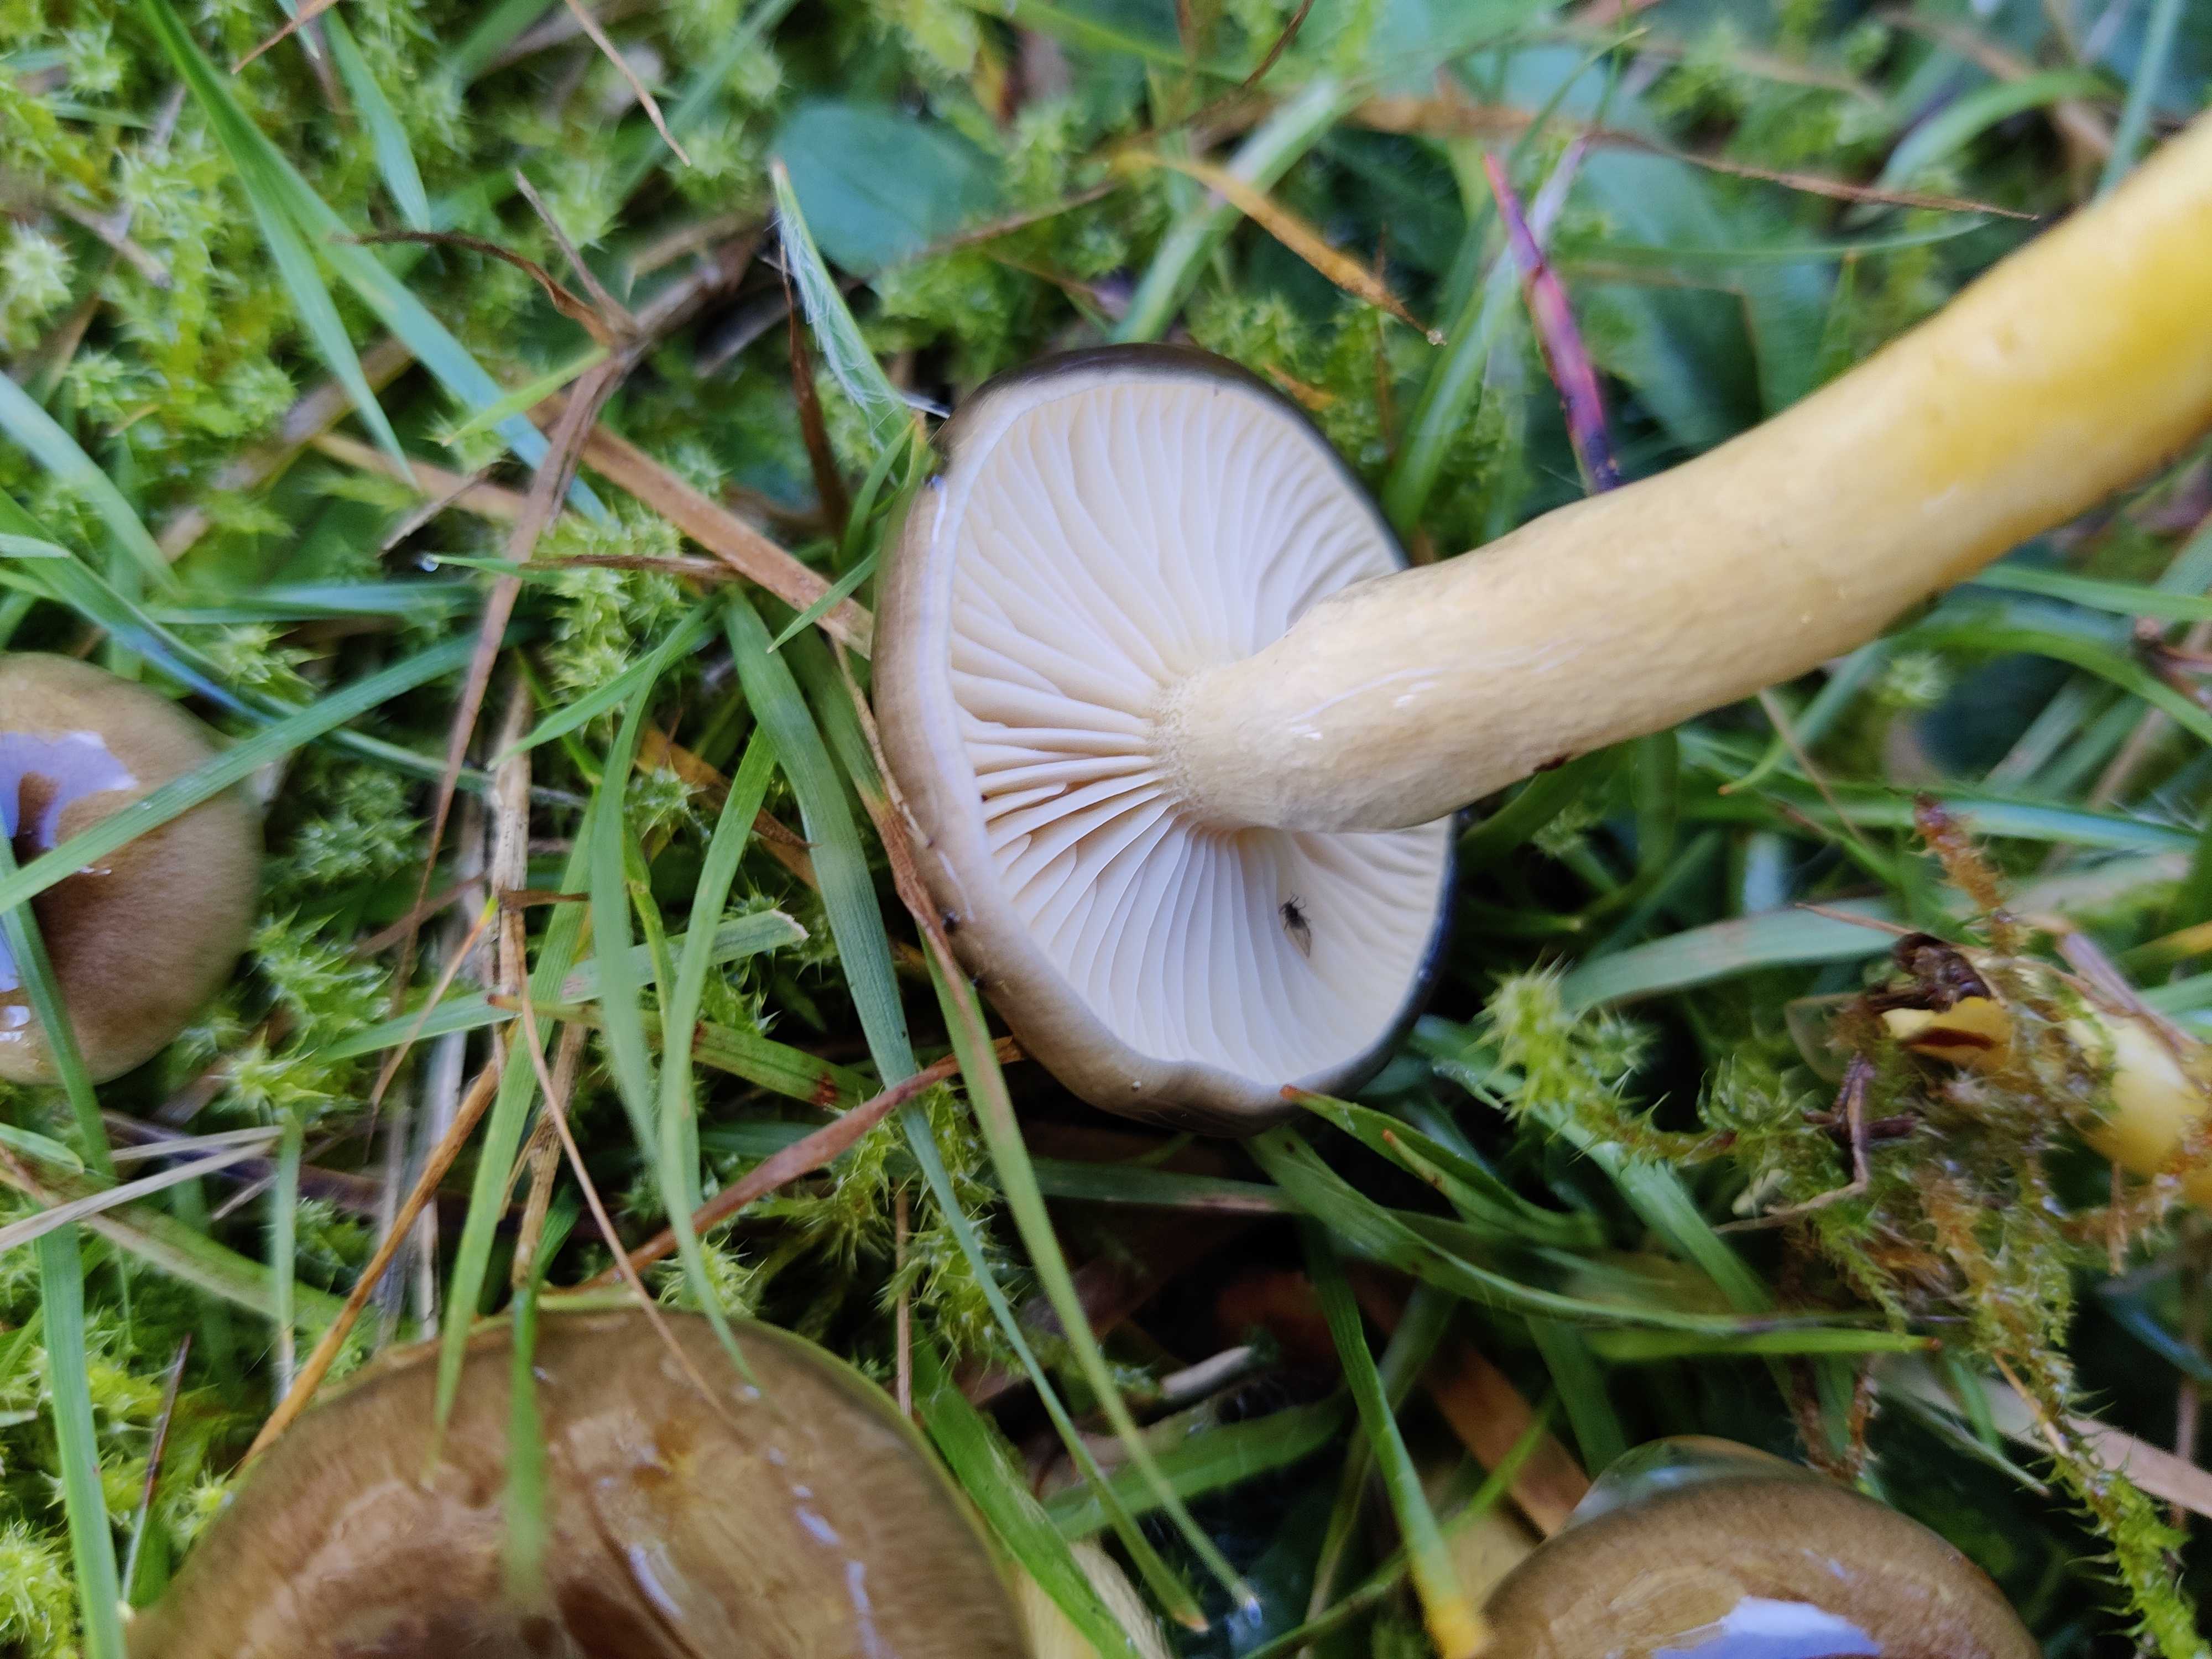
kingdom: Fungi
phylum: Basidiomycota
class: Agaricomycetes
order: Agaricales
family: Hygrophoraceae
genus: Hygrophorus
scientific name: Hygrophorus hypothejus
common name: frost-sneglehat
